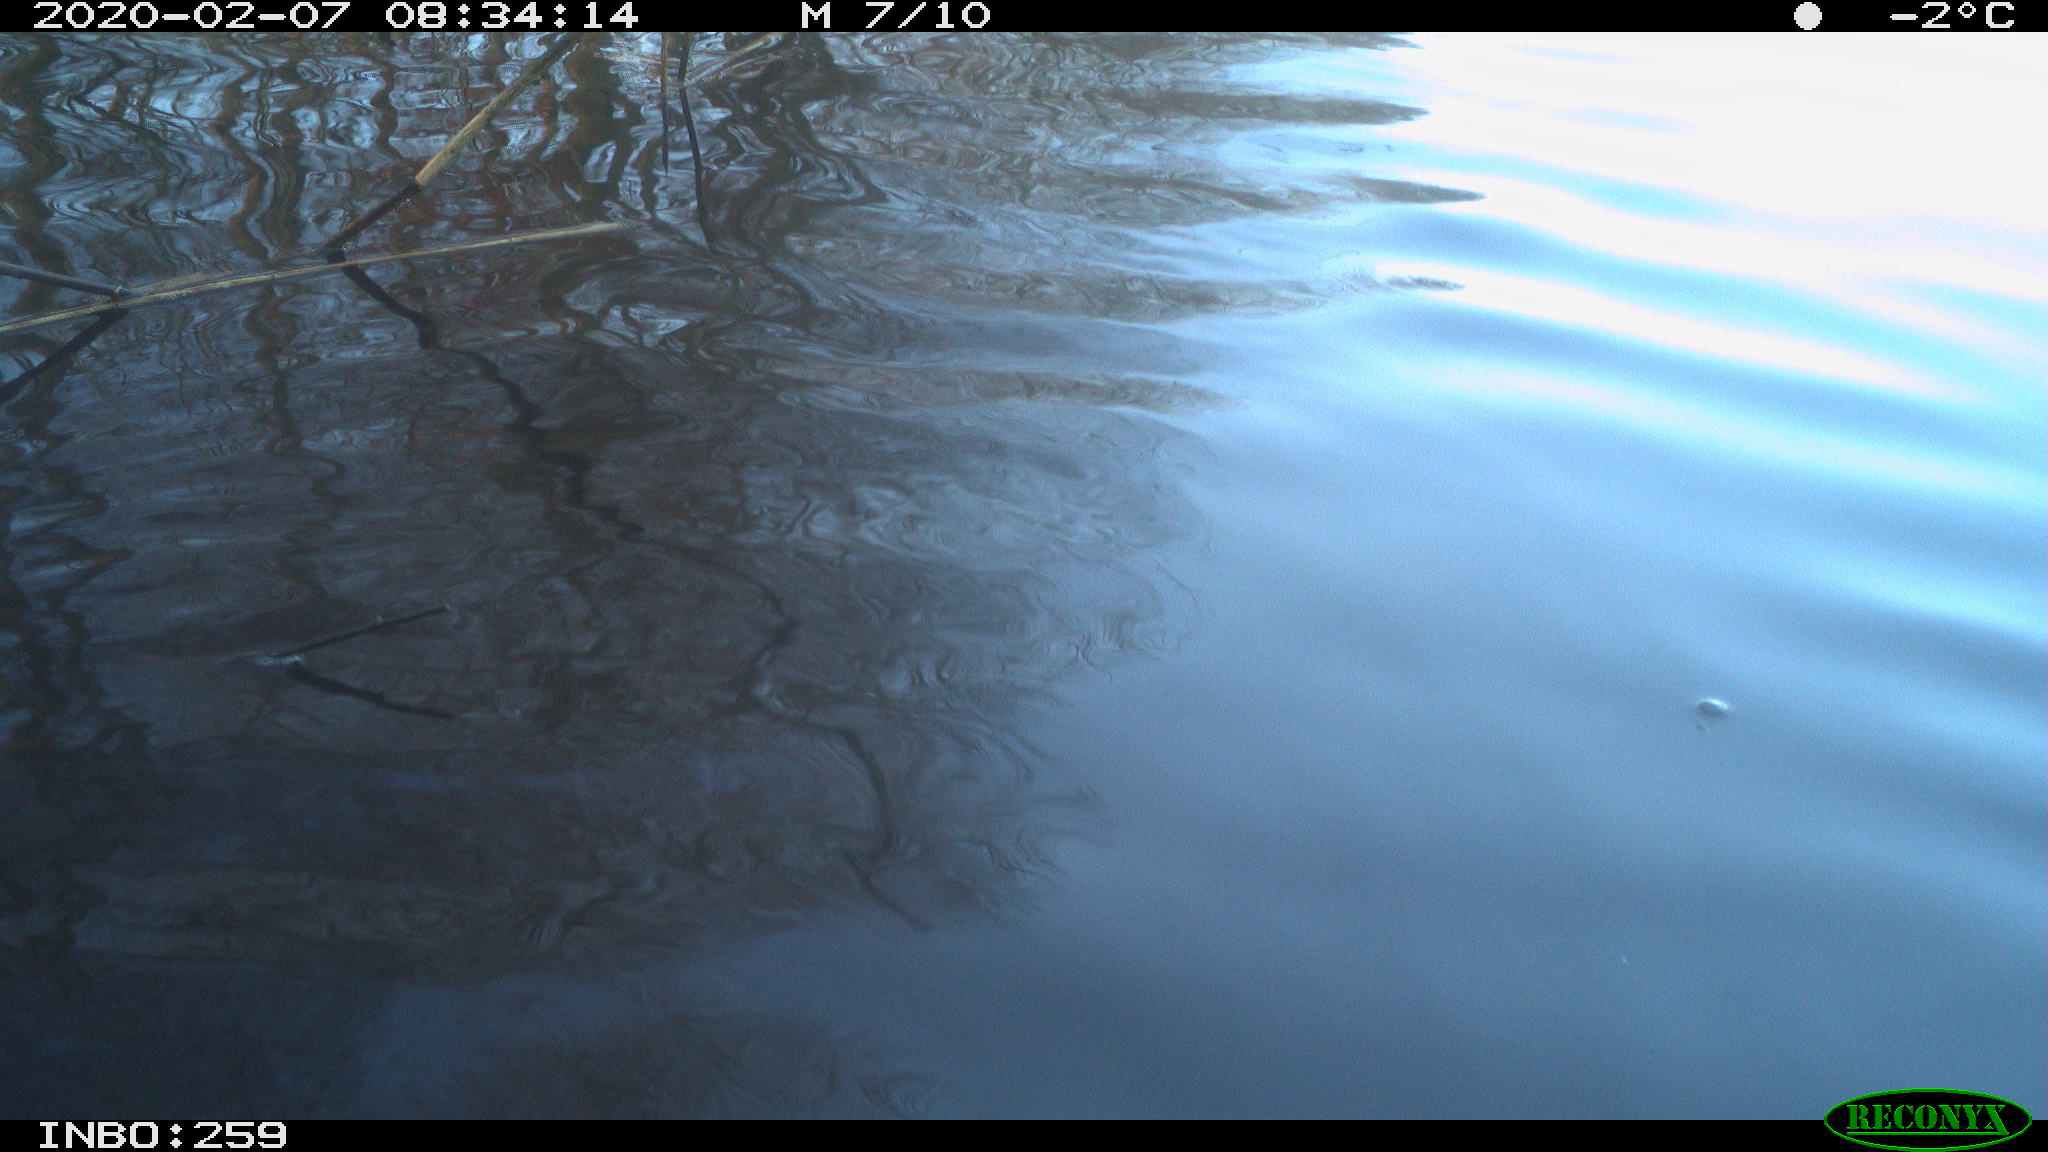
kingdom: Animalia
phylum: Chordata
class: Aves
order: Gruiformes
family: Rallidae
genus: Gallinula
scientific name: Gallinula chloropus
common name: Common moorhen
